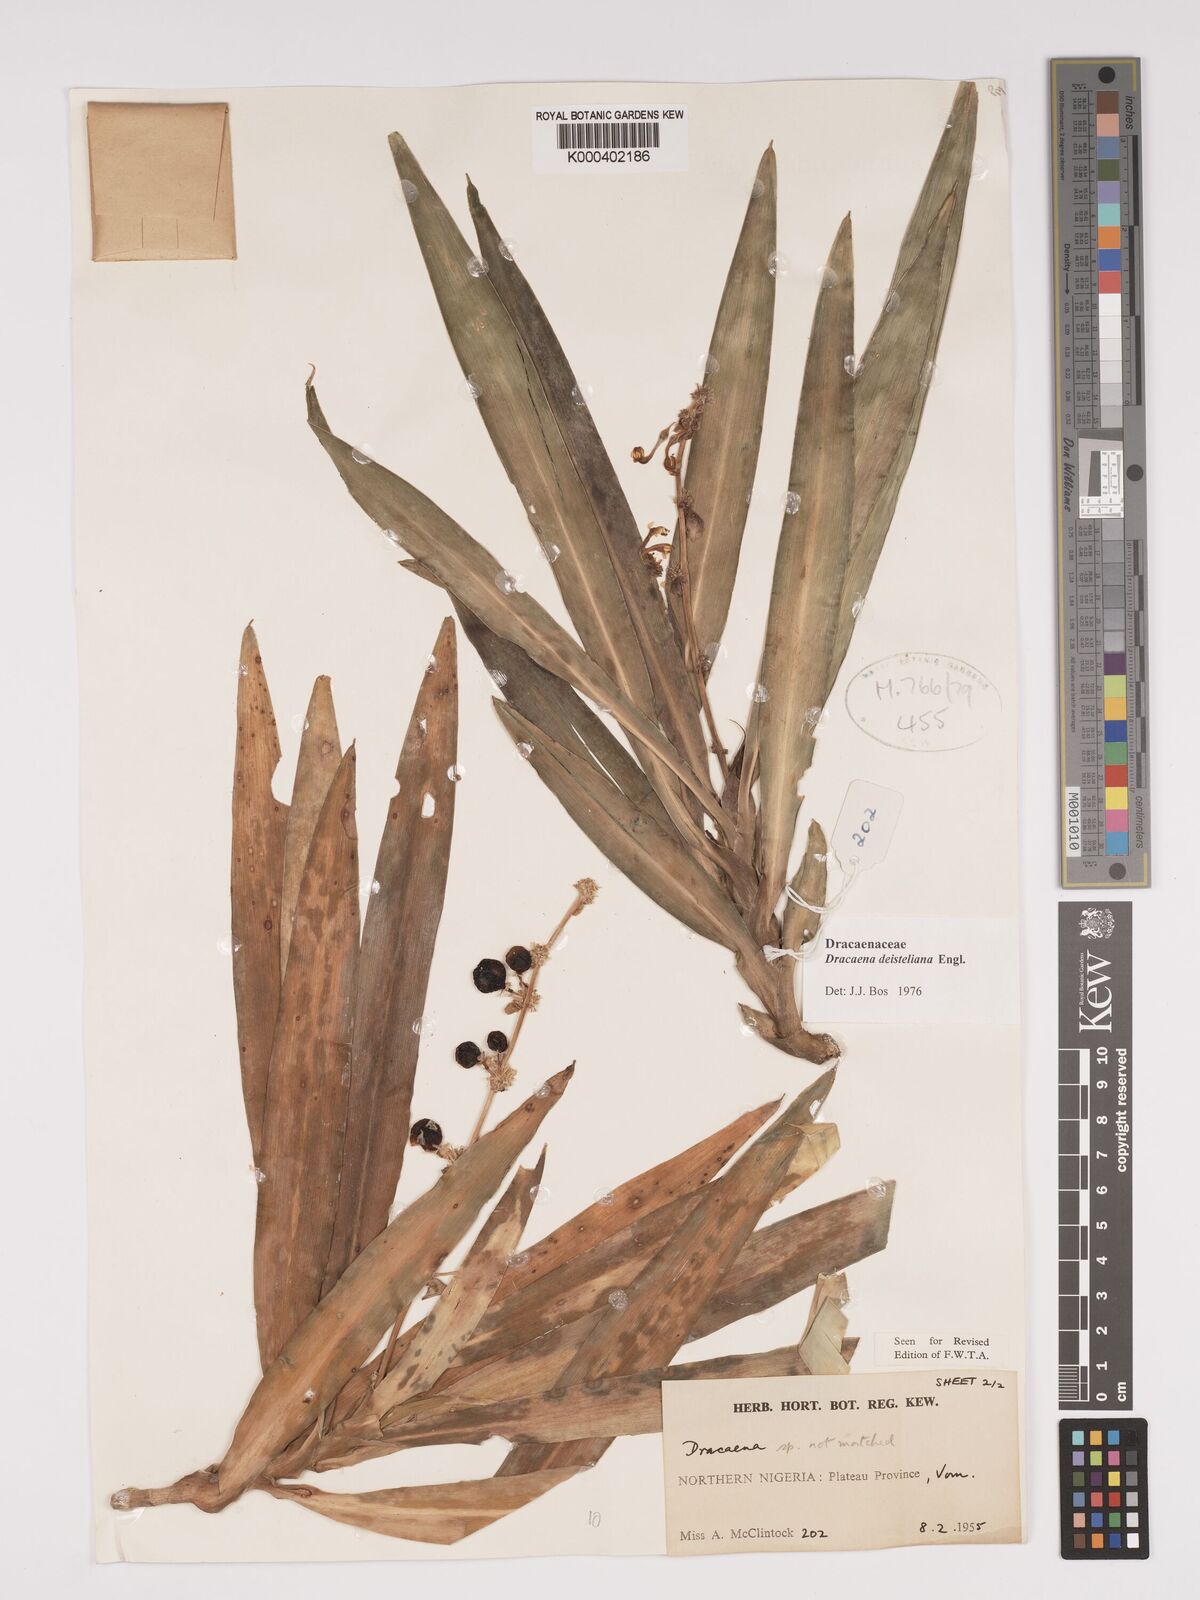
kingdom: Plantae
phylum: Tracheophyta
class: Liliopsida
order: Asparagales
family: Asparagaceae
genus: Dracaena
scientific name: Dracaena fragrans
